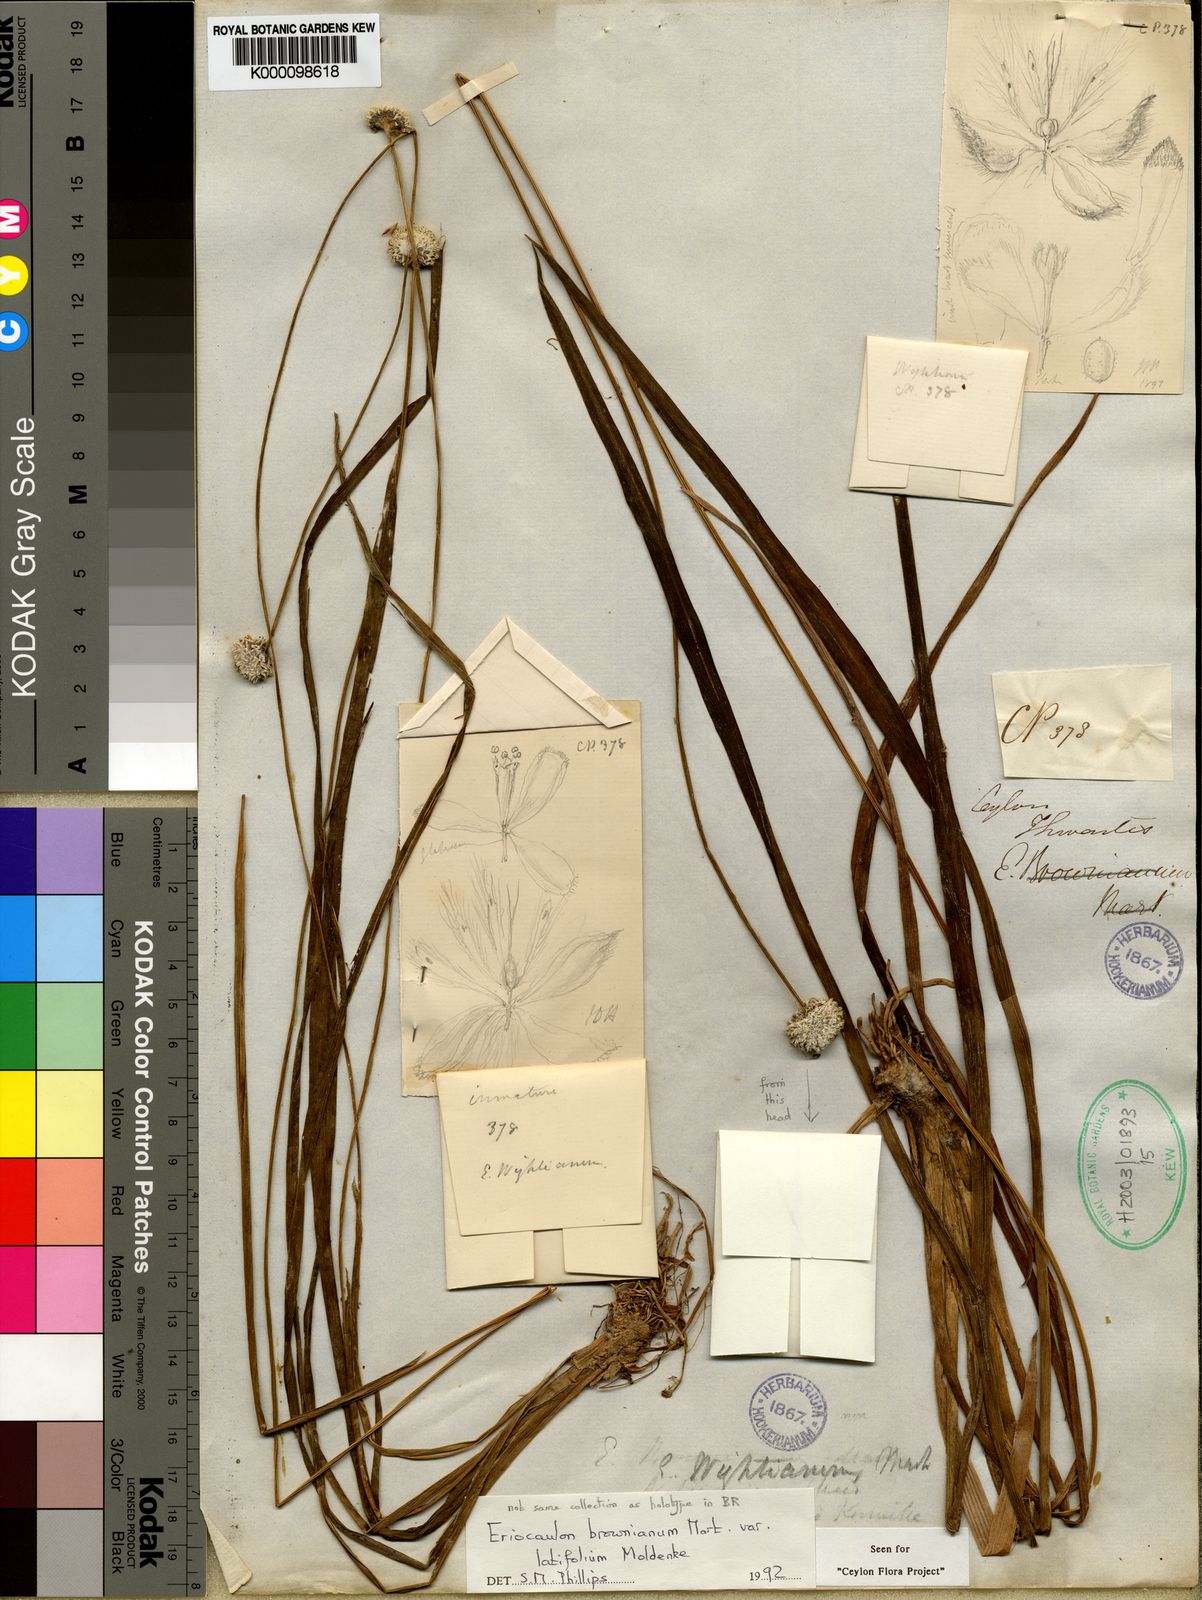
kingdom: Plantae
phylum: Tracheophyta
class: Liliopsida
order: Poales
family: Eriocaulaceae
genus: Eriocaulon
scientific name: Eriocaulon brownianum
